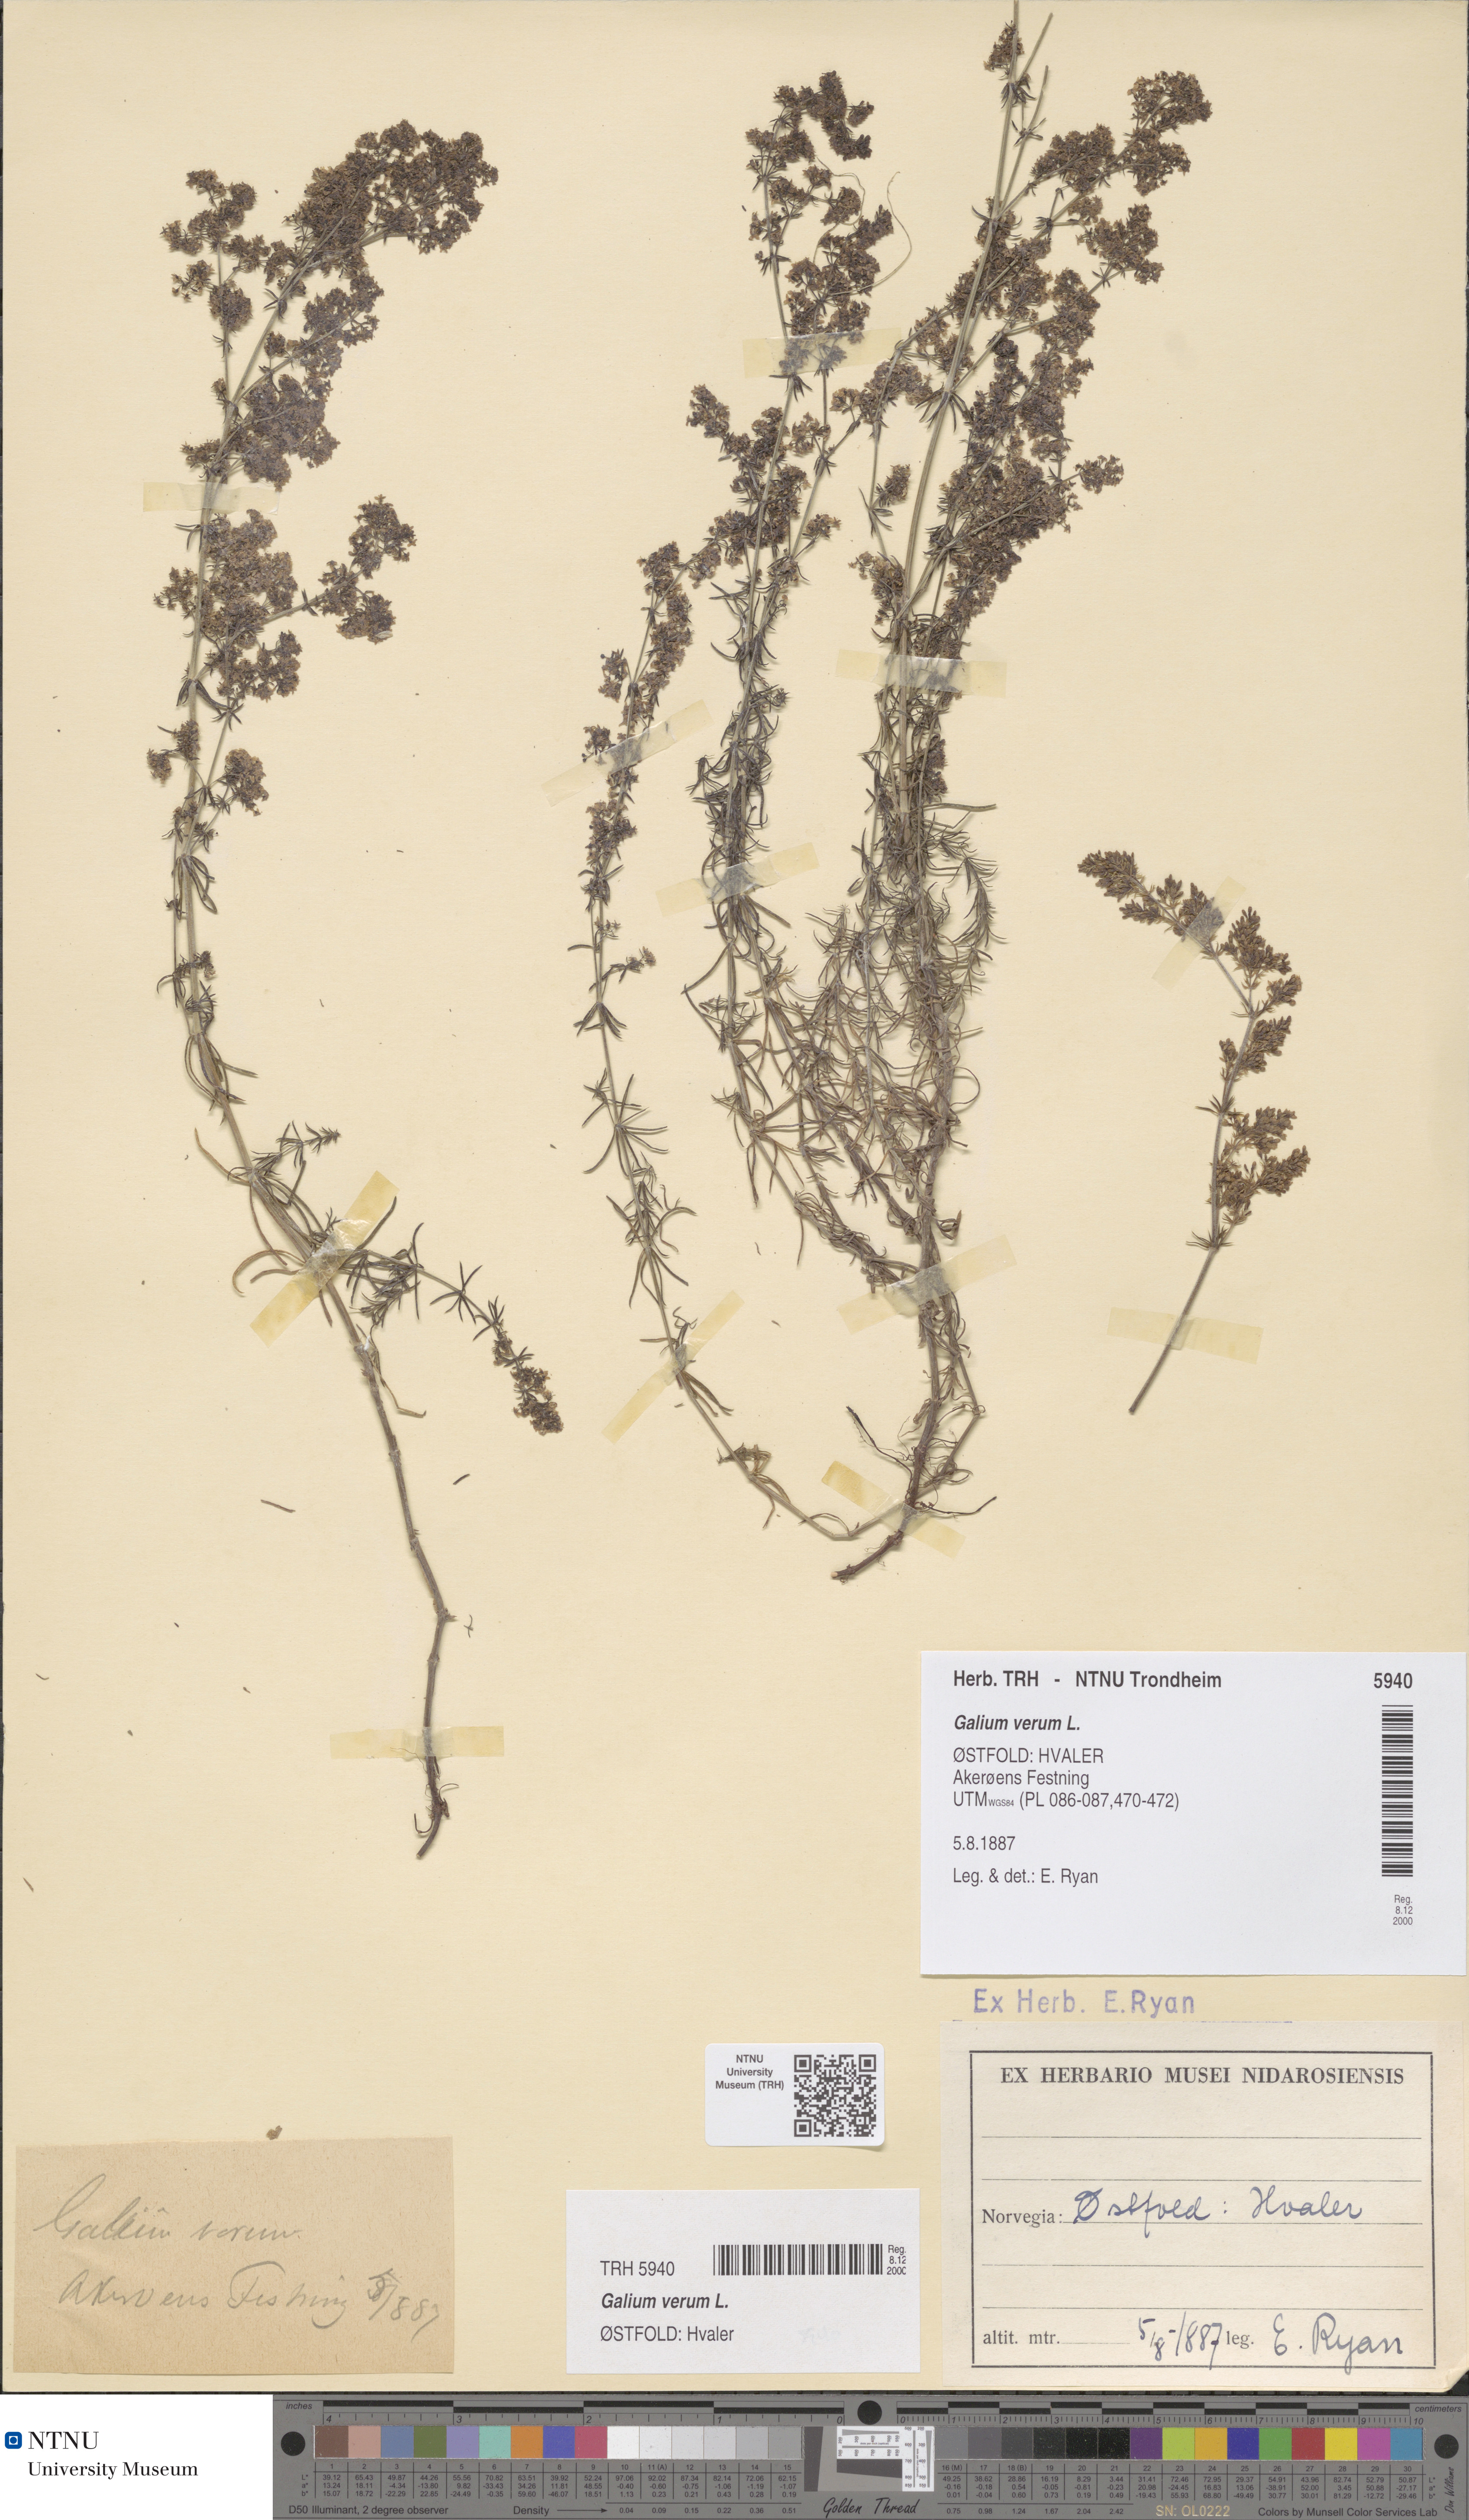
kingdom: Plantae
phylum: Tracheophyta
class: Magnoliopsida
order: Gentianales
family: Rubiaceae
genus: Galium
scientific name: Galium verum
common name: Lady's bedstraw
